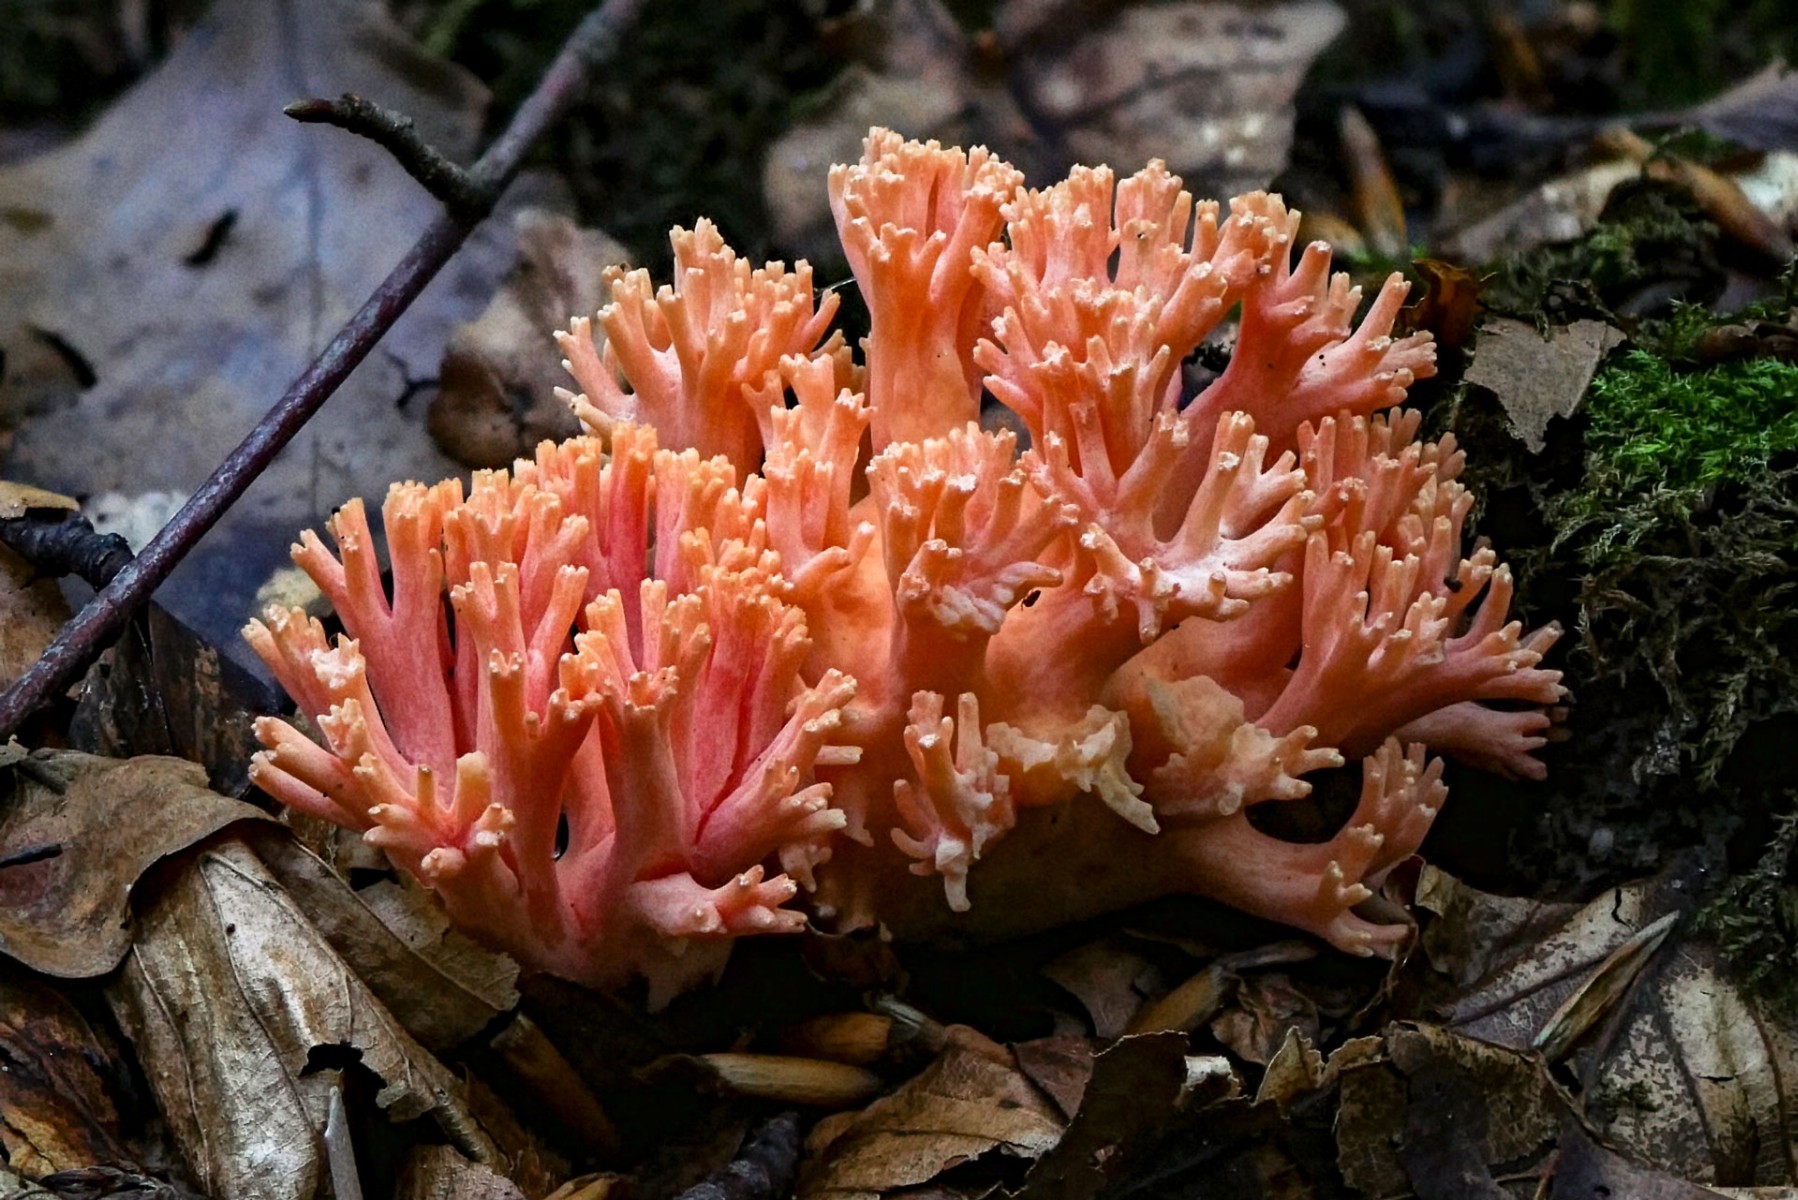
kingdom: Fungi
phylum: Basidiomycota
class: Agaricomycetes
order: Gomphales
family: Gomphaceae
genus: Ramaria
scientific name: Ramaria fagetorum
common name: abrikos-koralsvamp
